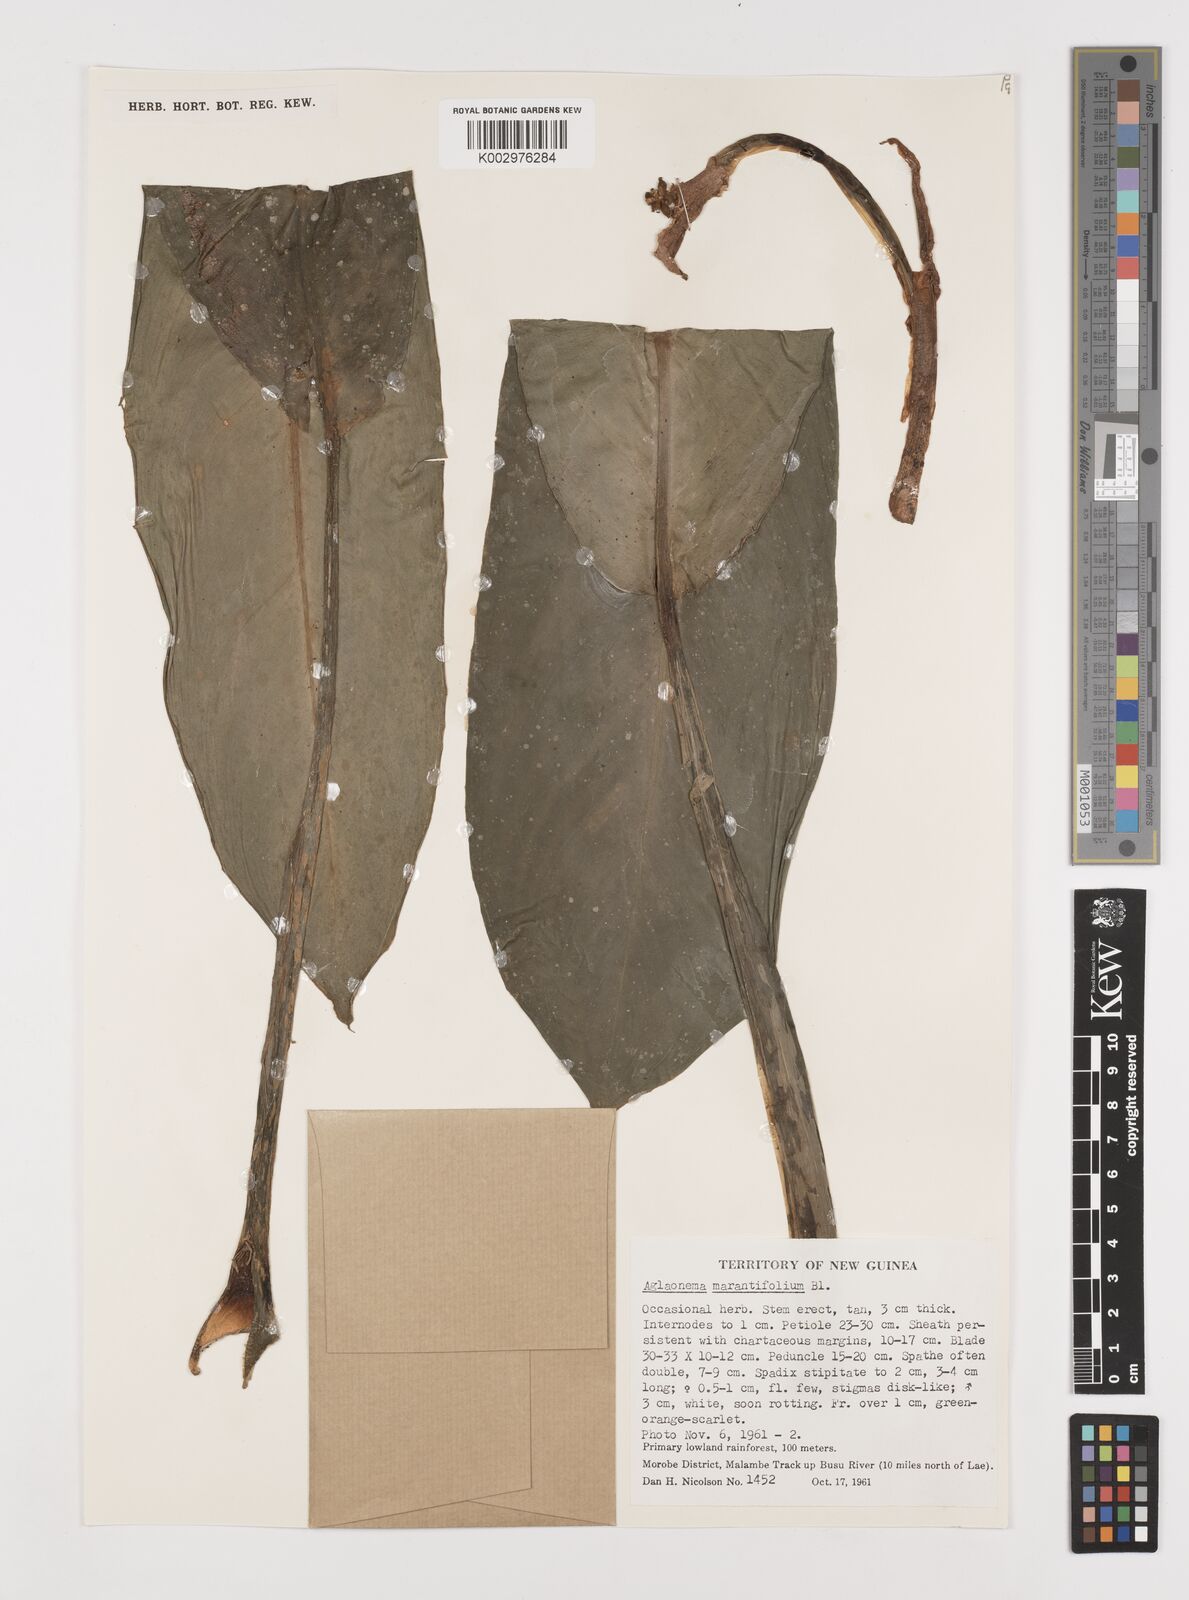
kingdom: Plantae
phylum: Tracheophyta
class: Liliopsida
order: Alismatales
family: Araceae
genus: Aglaonema
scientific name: Aglaonema marantifolium
